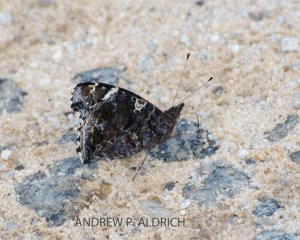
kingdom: Animalia
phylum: Arthropoda
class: Insecta
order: Lepidoptera
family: Nymphalidae
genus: Vanessa
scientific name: Vanessa atalanta
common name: Red Admiral
